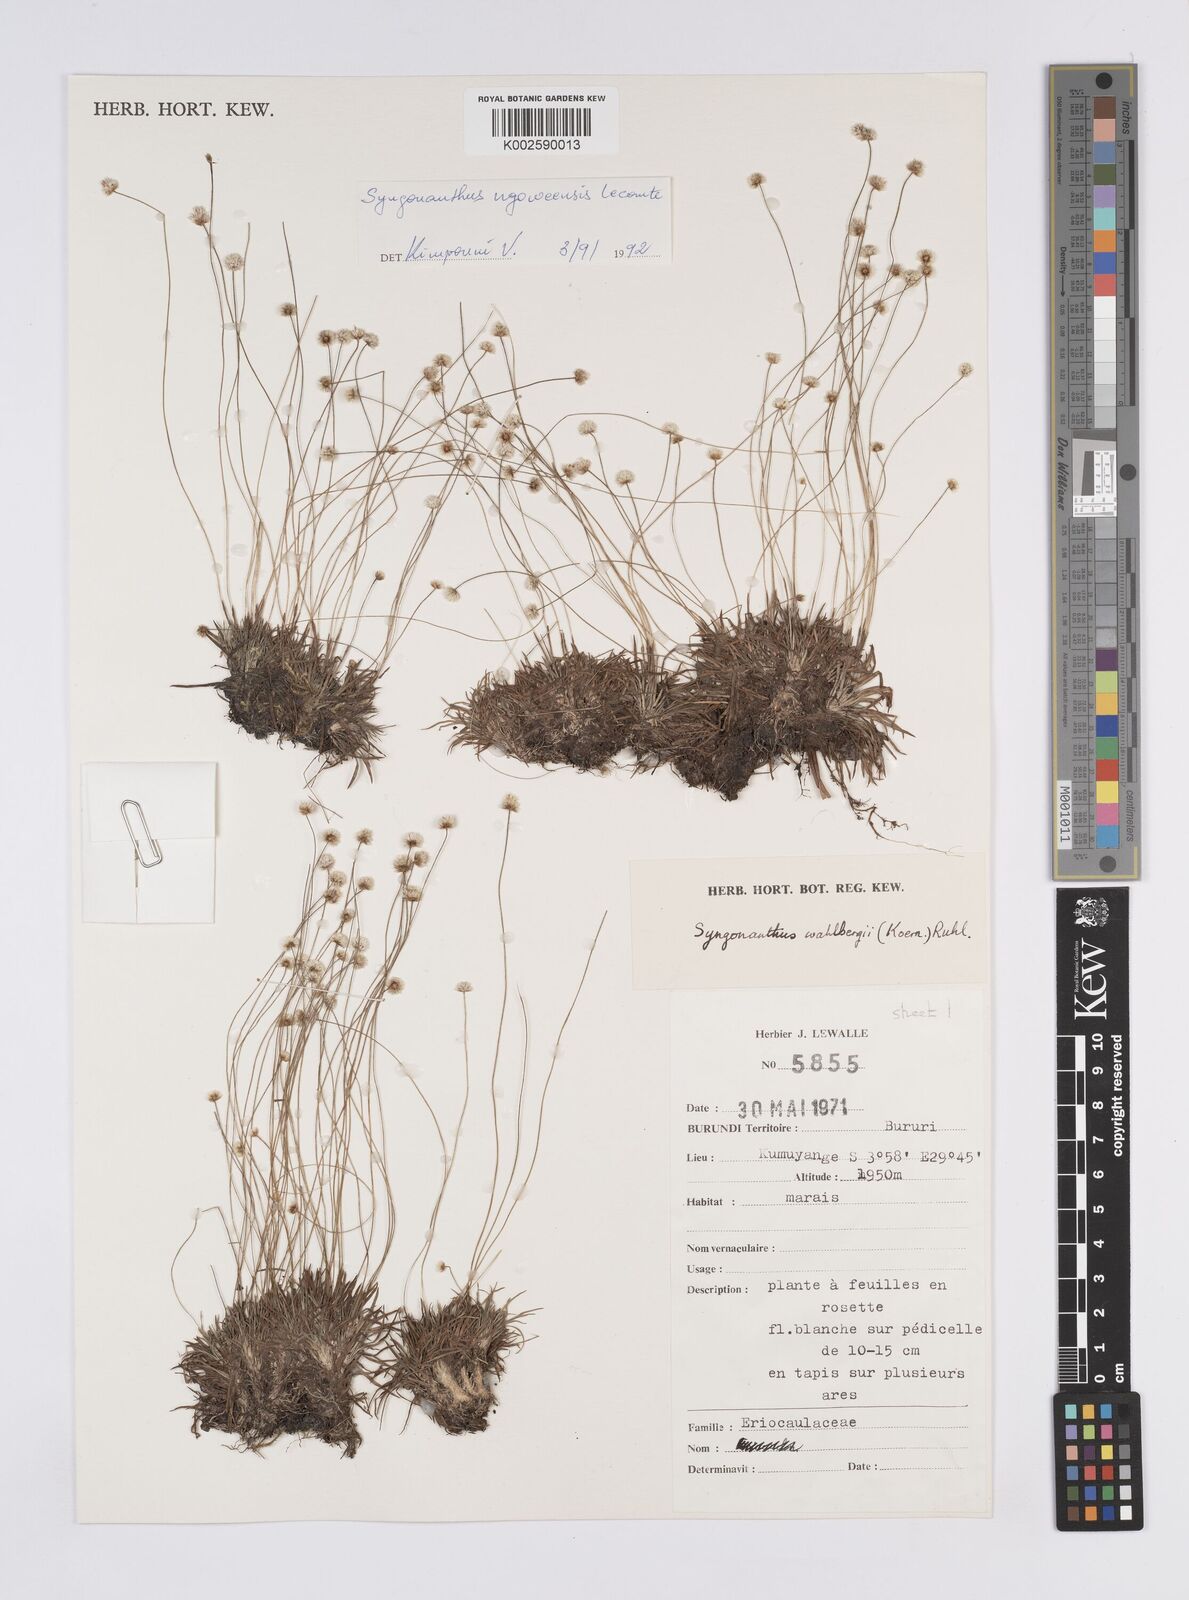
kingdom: Plantae
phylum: Tracheophyta
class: Liliopsida
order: Poales
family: Eriocaulaceae
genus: Syngonanthus
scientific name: Syngonanthus lisowskii
